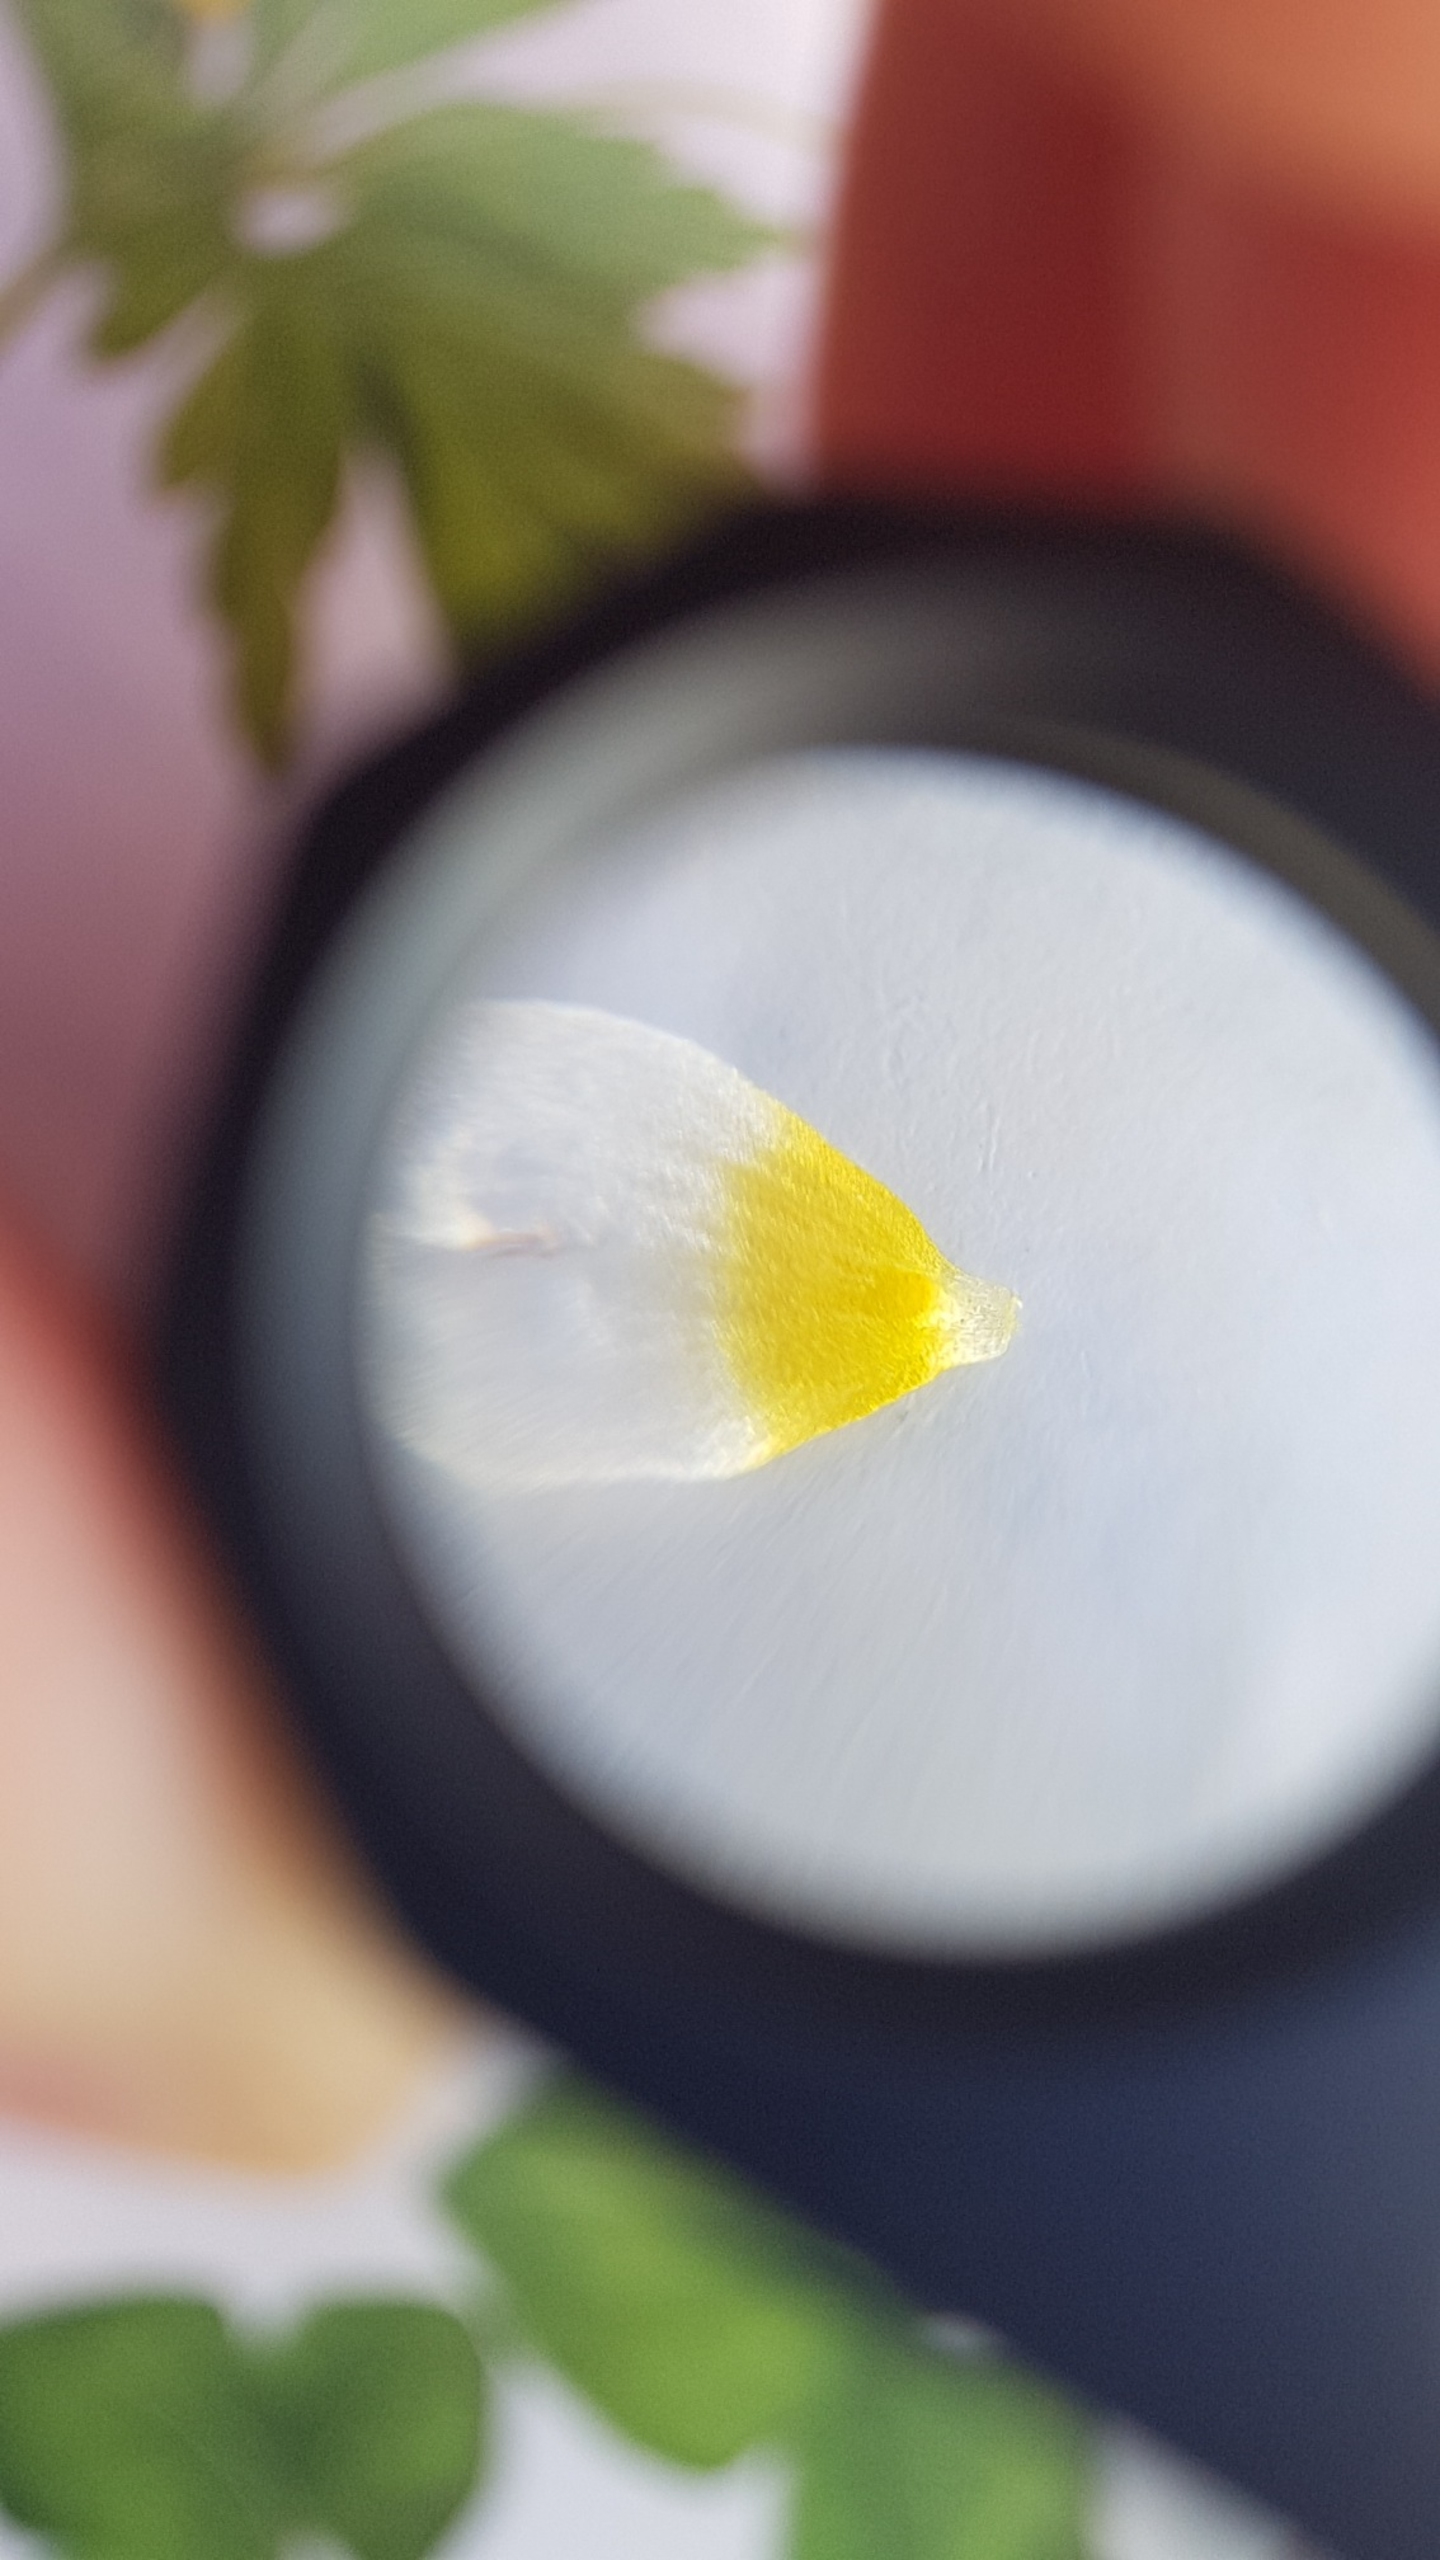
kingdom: Plantae
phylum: Tracheophyta
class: Magnoliopsida
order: Ranunculales
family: Ranunculaceae
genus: Ranunculus
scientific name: Ranunculus peltatus
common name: Strand-vandranunkel
